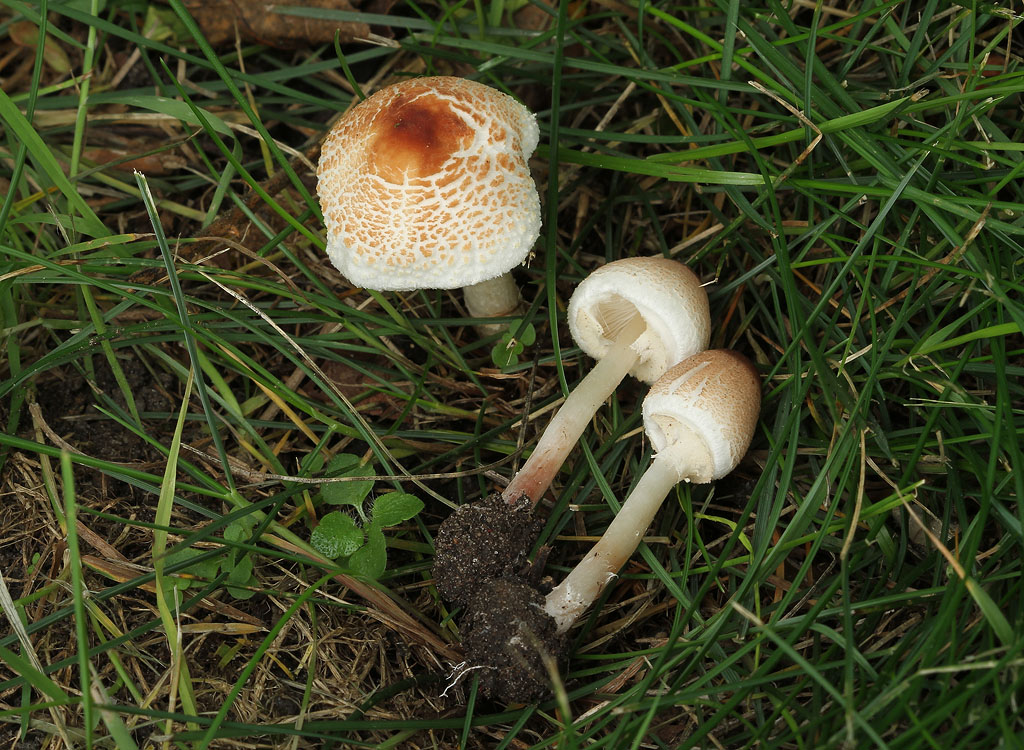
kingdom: Fungi
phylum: Basidiomycota
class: Agaricomycetes
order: Agaricales
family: Agaricaceae
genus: Lepiota
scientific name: Lepiota cristata
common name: stinkende parasolhat
